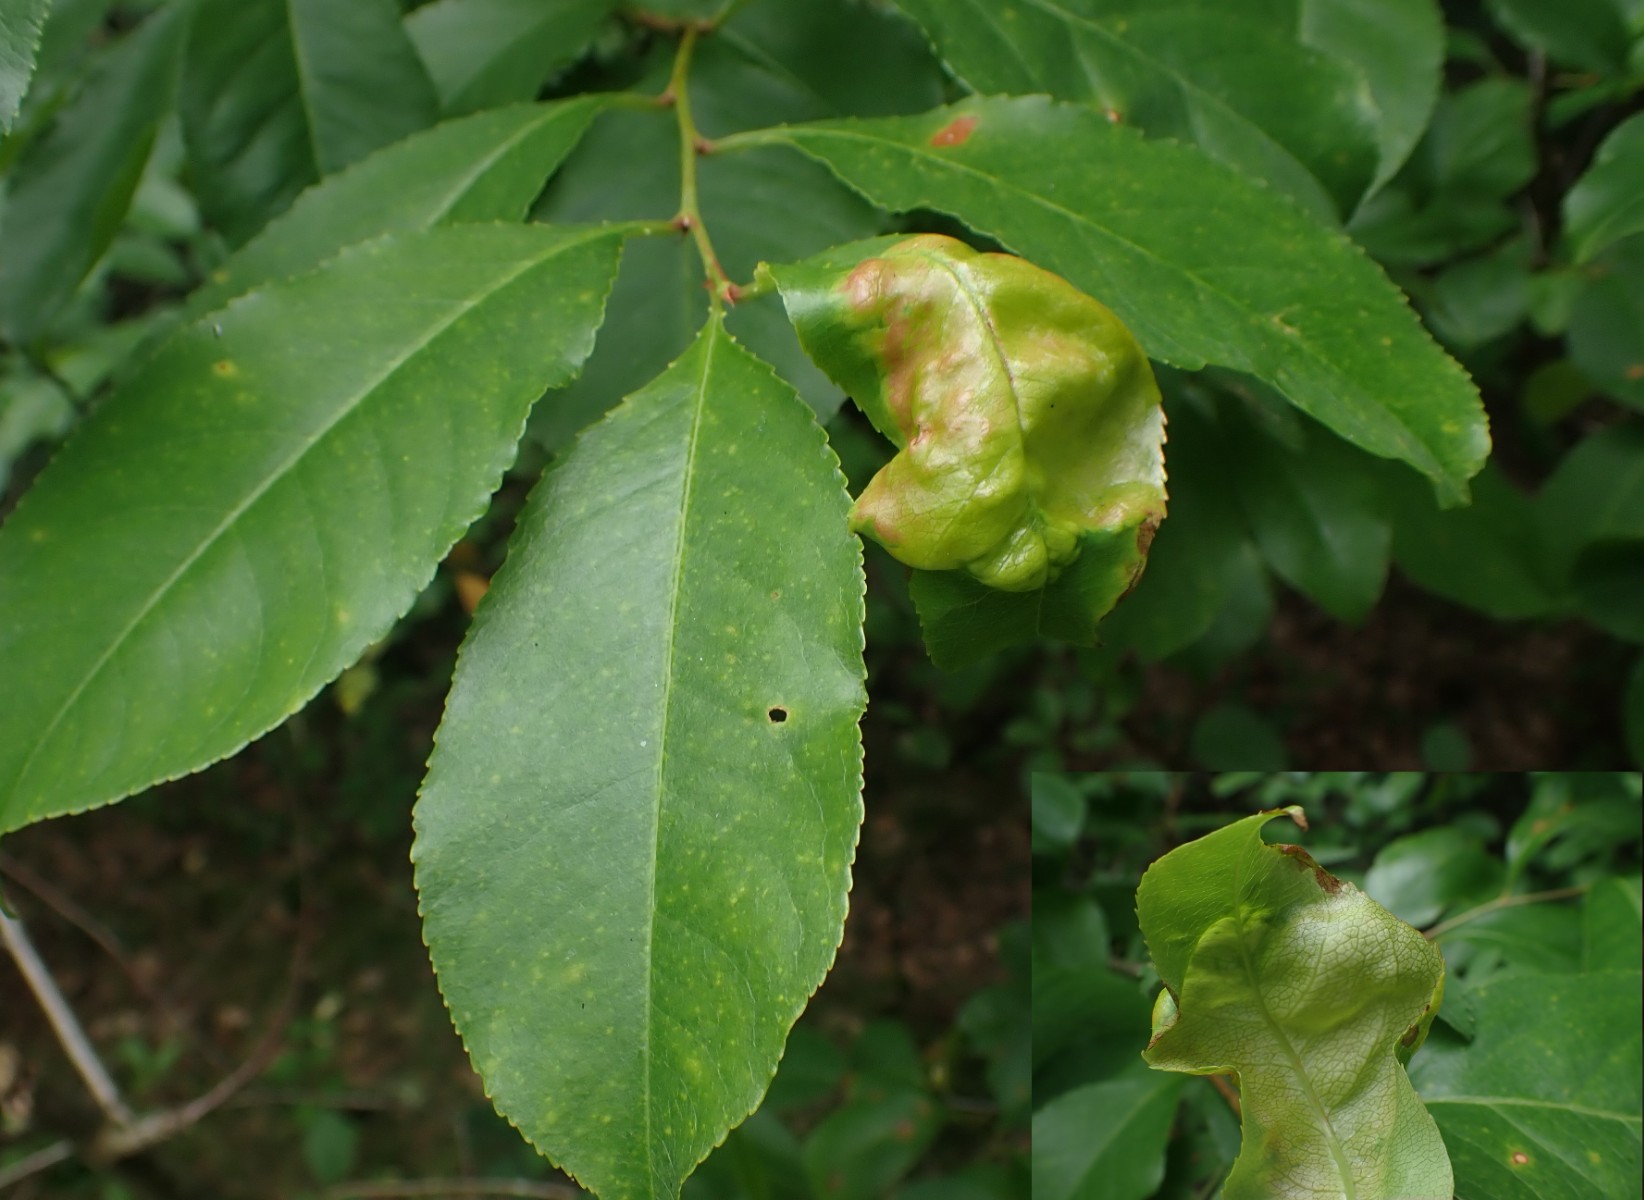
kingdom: Fungi
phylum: Ascomycota
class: Taphrinomycetes
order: Taphrinales
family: Taphrinaceae
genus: Taphrina
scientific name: Taphrina farlowii
